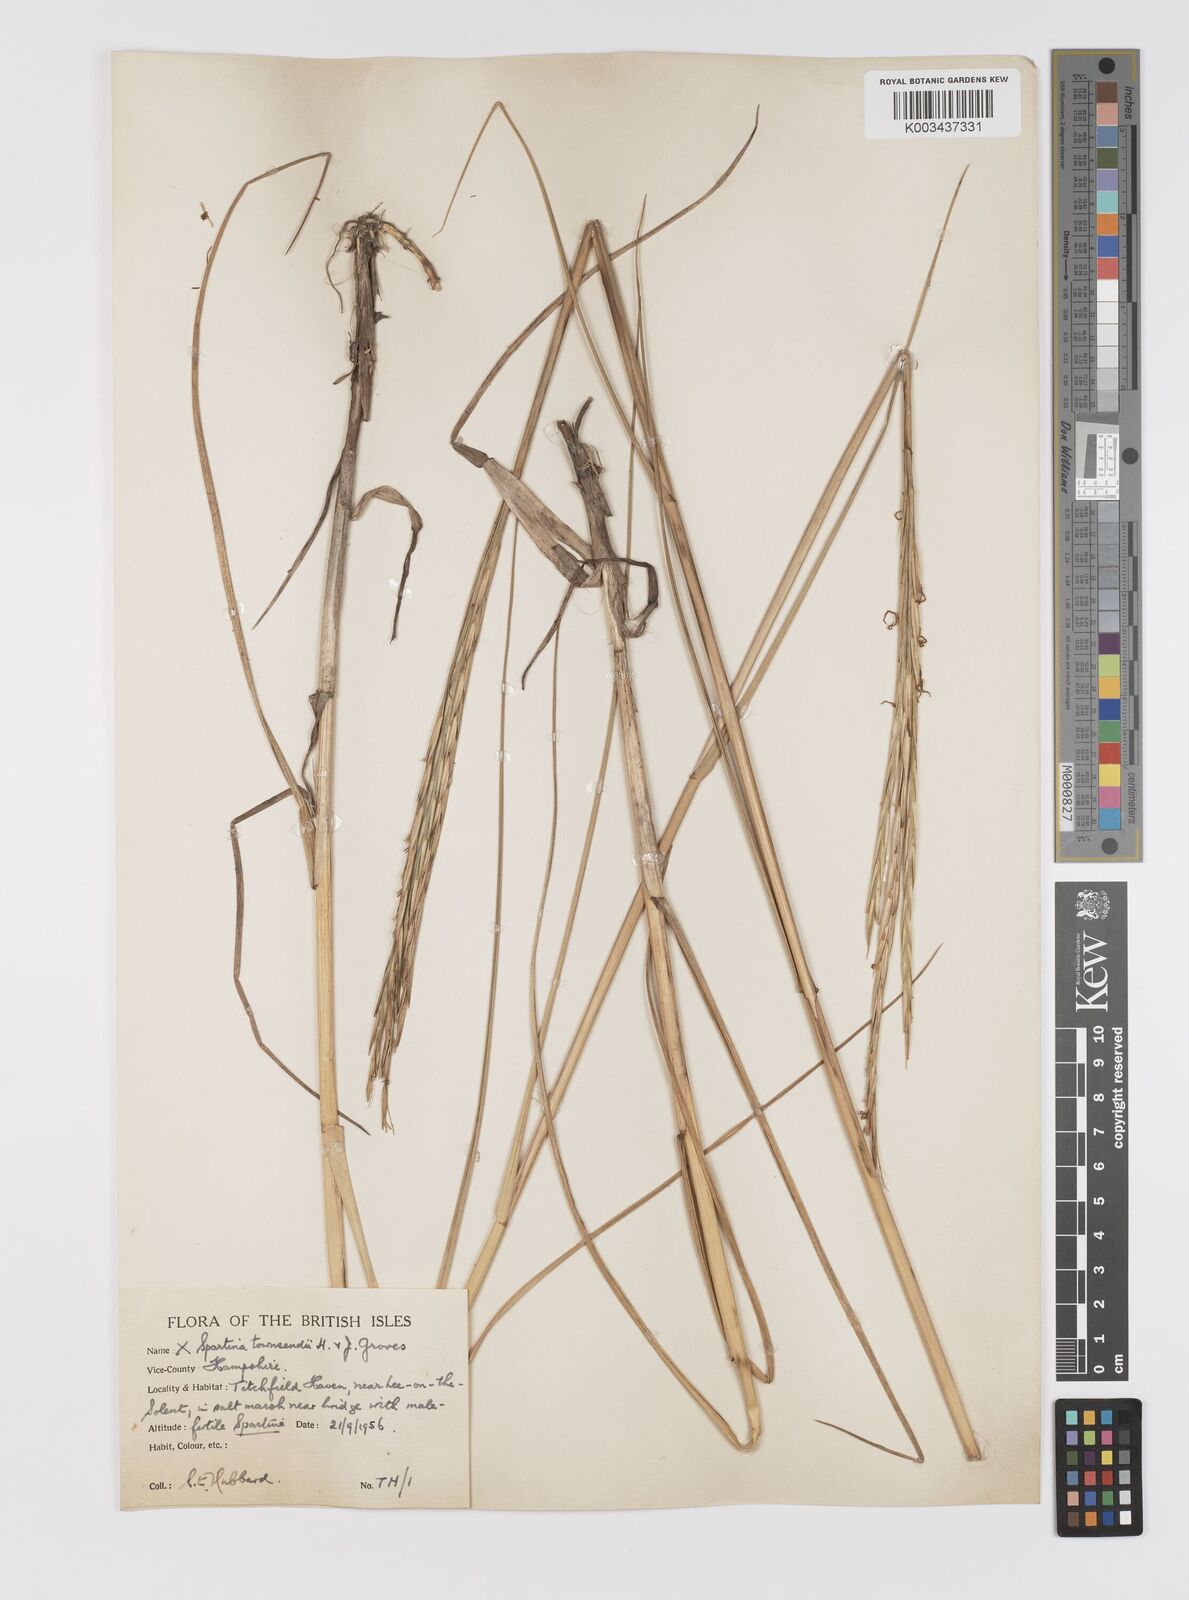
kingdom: Plantae
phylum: Tracheophyta
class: Liliopsida
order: Poales
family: Poaceae
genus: Sporobolus
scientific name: Sporobolus townsendii
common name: Townsend's cordgrass
